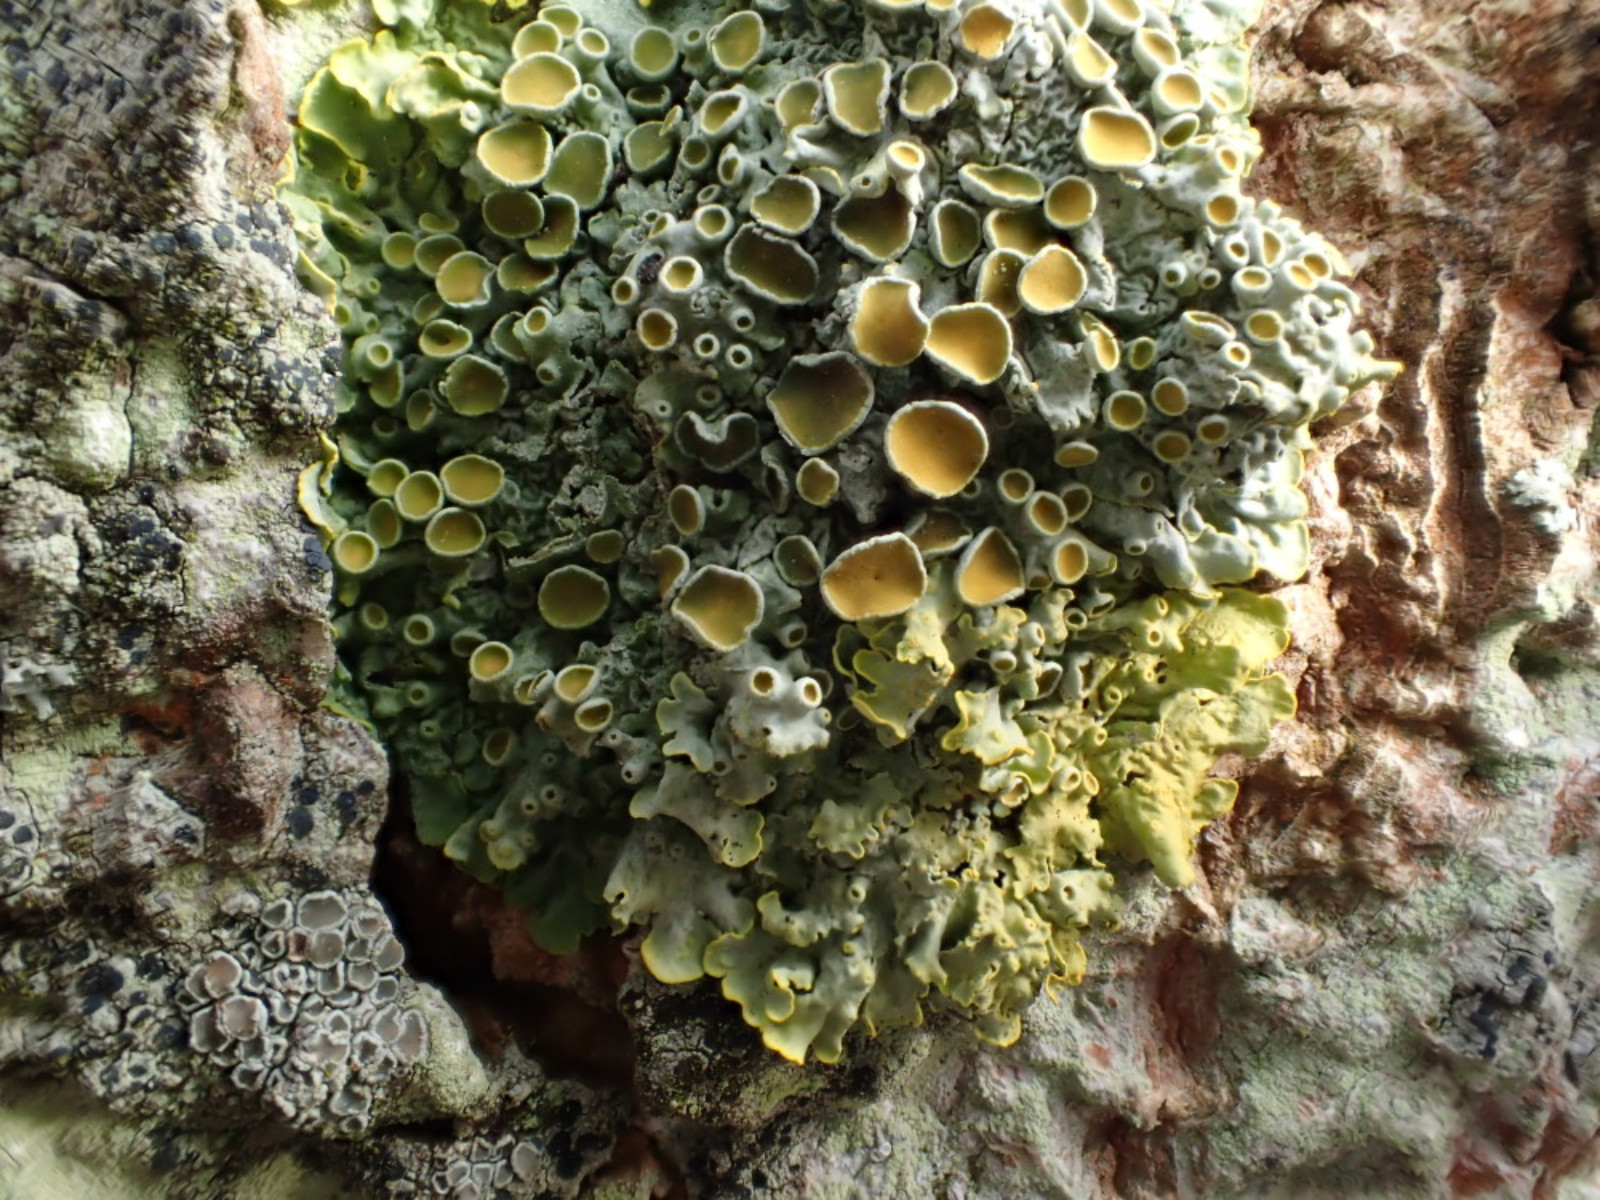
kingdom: Fungi
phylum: Ascomycota
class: Lecanoromycetes
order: Teloschistales
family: Teloschistaceae
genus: Xanthoria
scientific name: Xanthoria parietina
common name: almindelig væggelav
